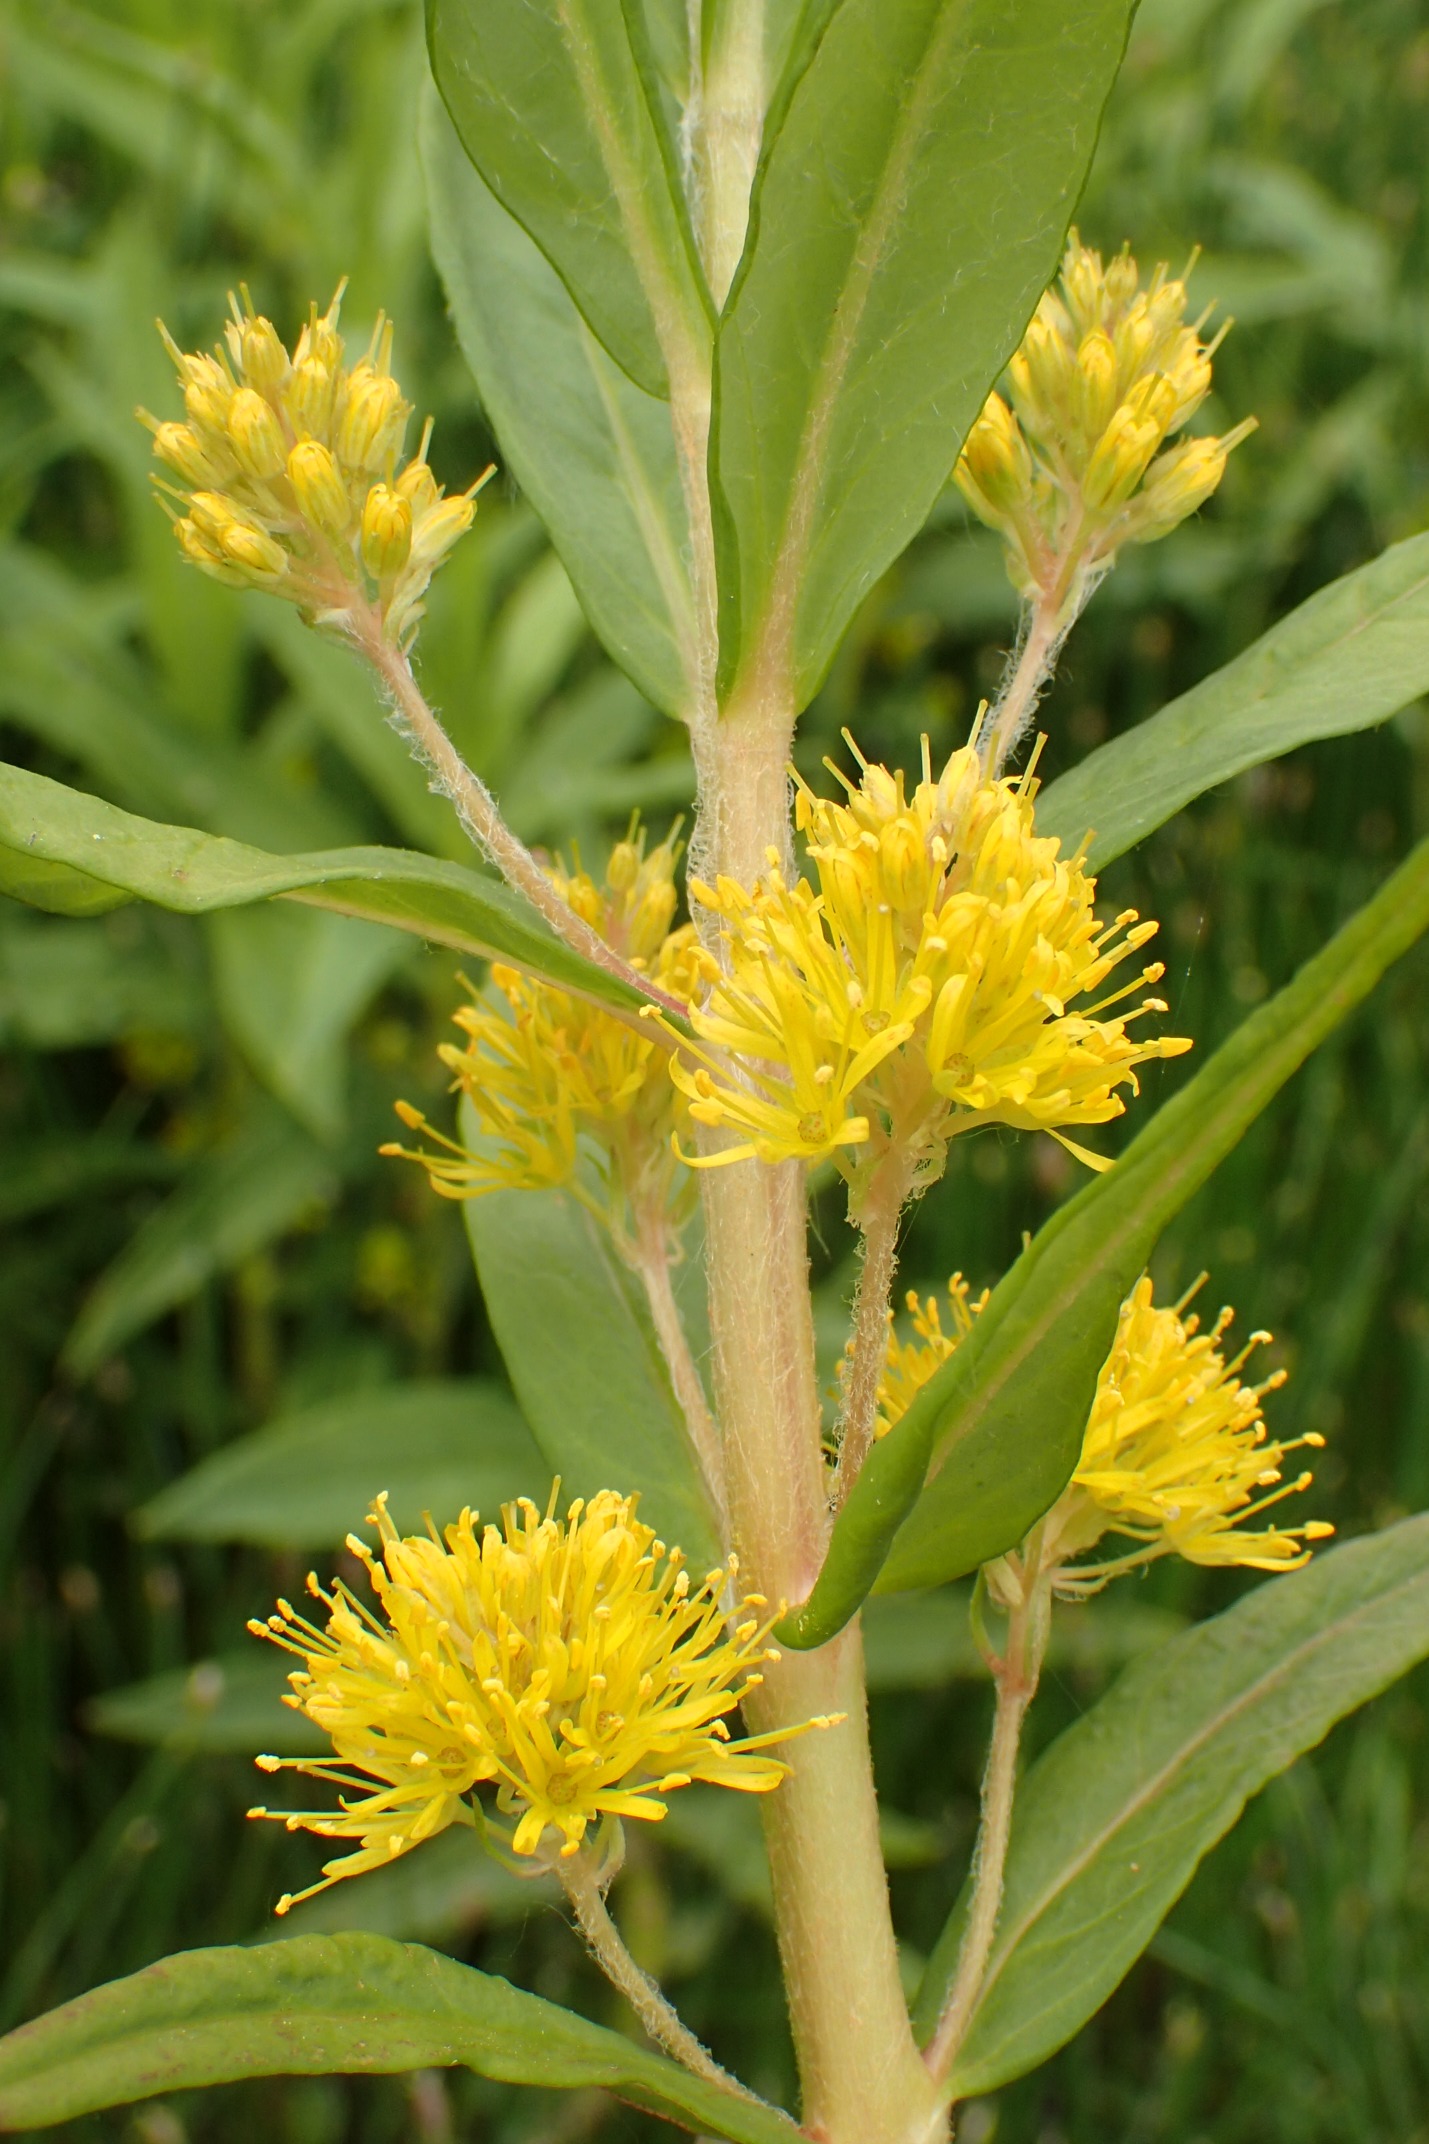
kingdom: Plantae
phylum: Tracheophyta
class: Magnoliopsida
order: Ericales
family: Primulaceae
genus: Lysimachia
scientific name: Lysimachia thyrsiflora
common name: Dusk-fredløs
